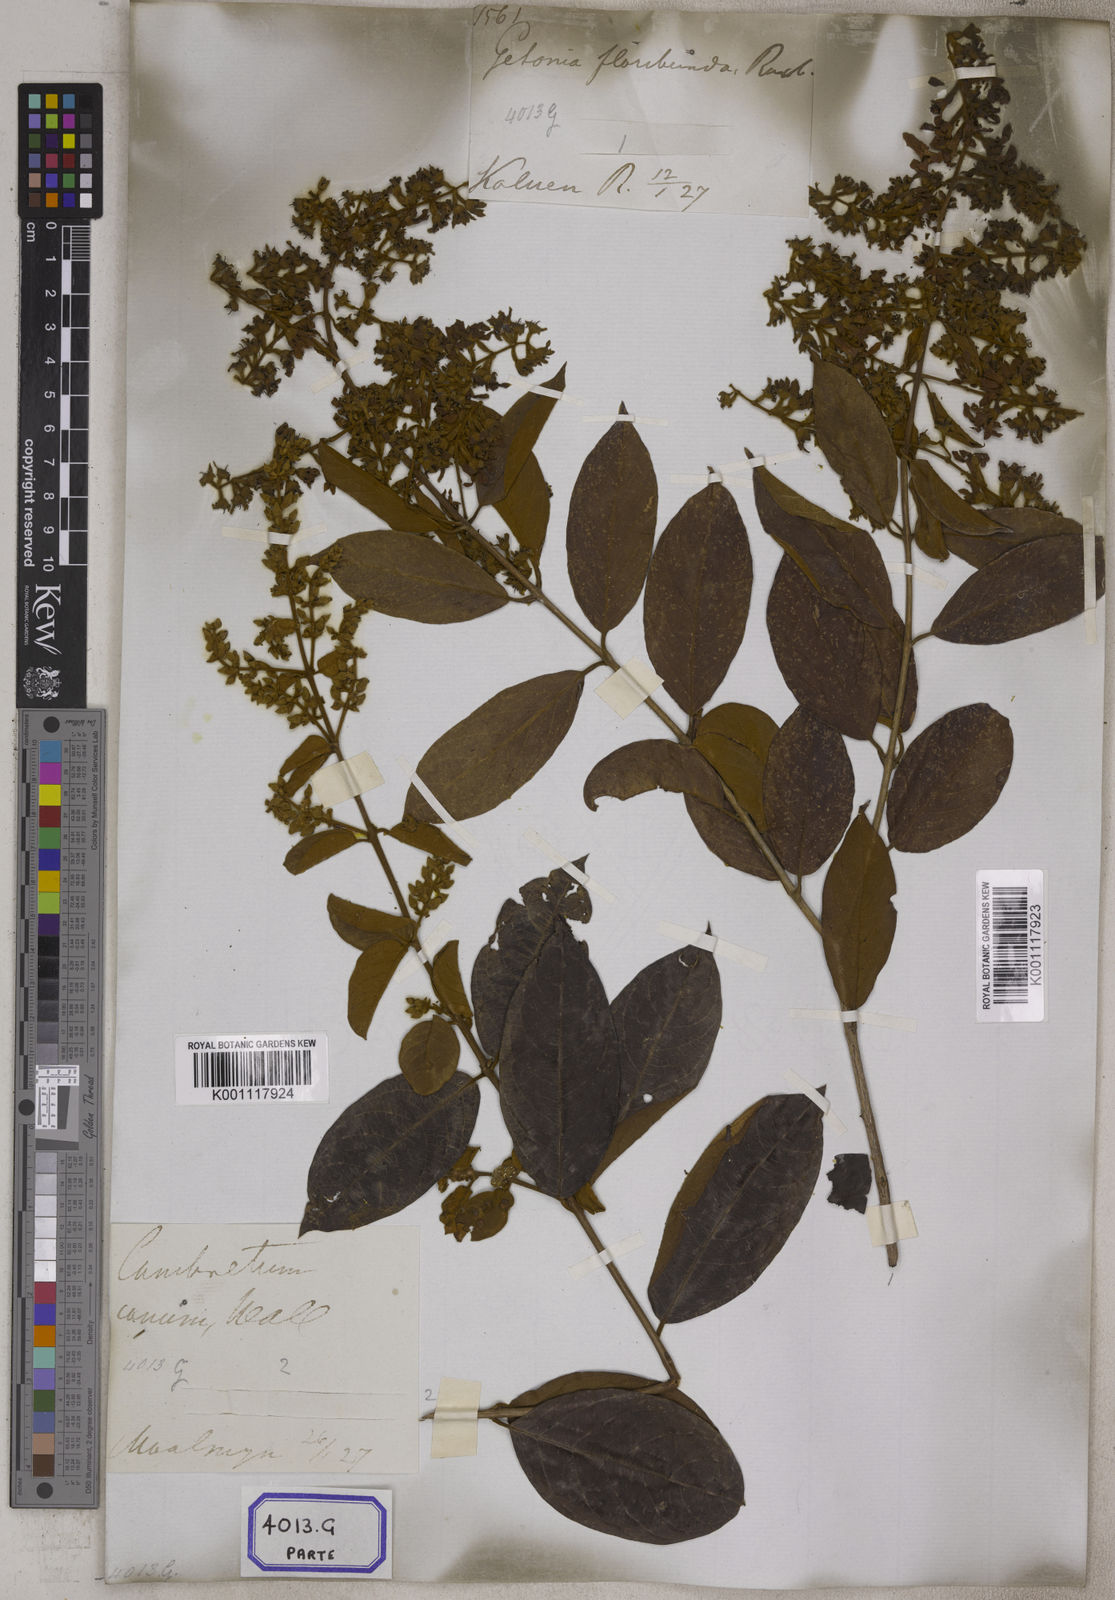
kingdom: Plantae
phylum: Tracheophyta
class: Magnoliopsida
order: Myrtales
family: Combretaceae
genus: Getonia
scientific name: Getonia floribunda
